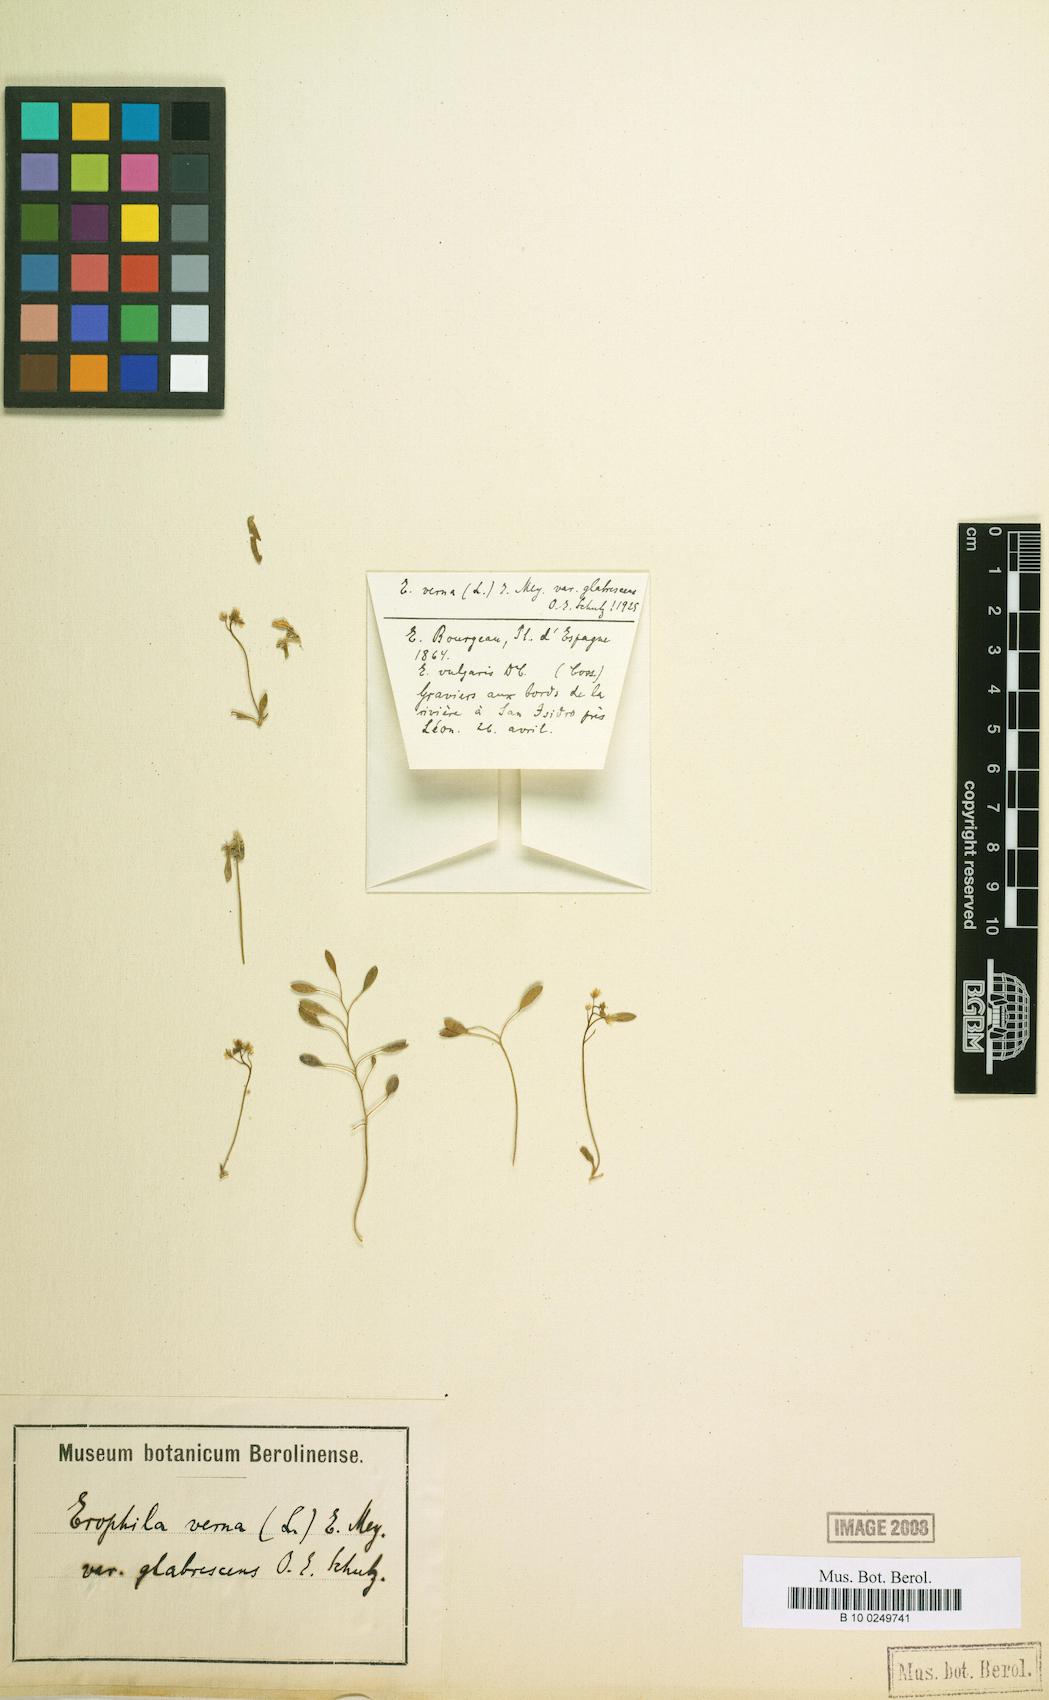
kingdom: Plantae
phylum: Tracheophyta
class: Magnoliopsida
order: Brassicales
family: Brassicaceae
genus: Draba
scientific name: Draba verna
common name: Spring draba
